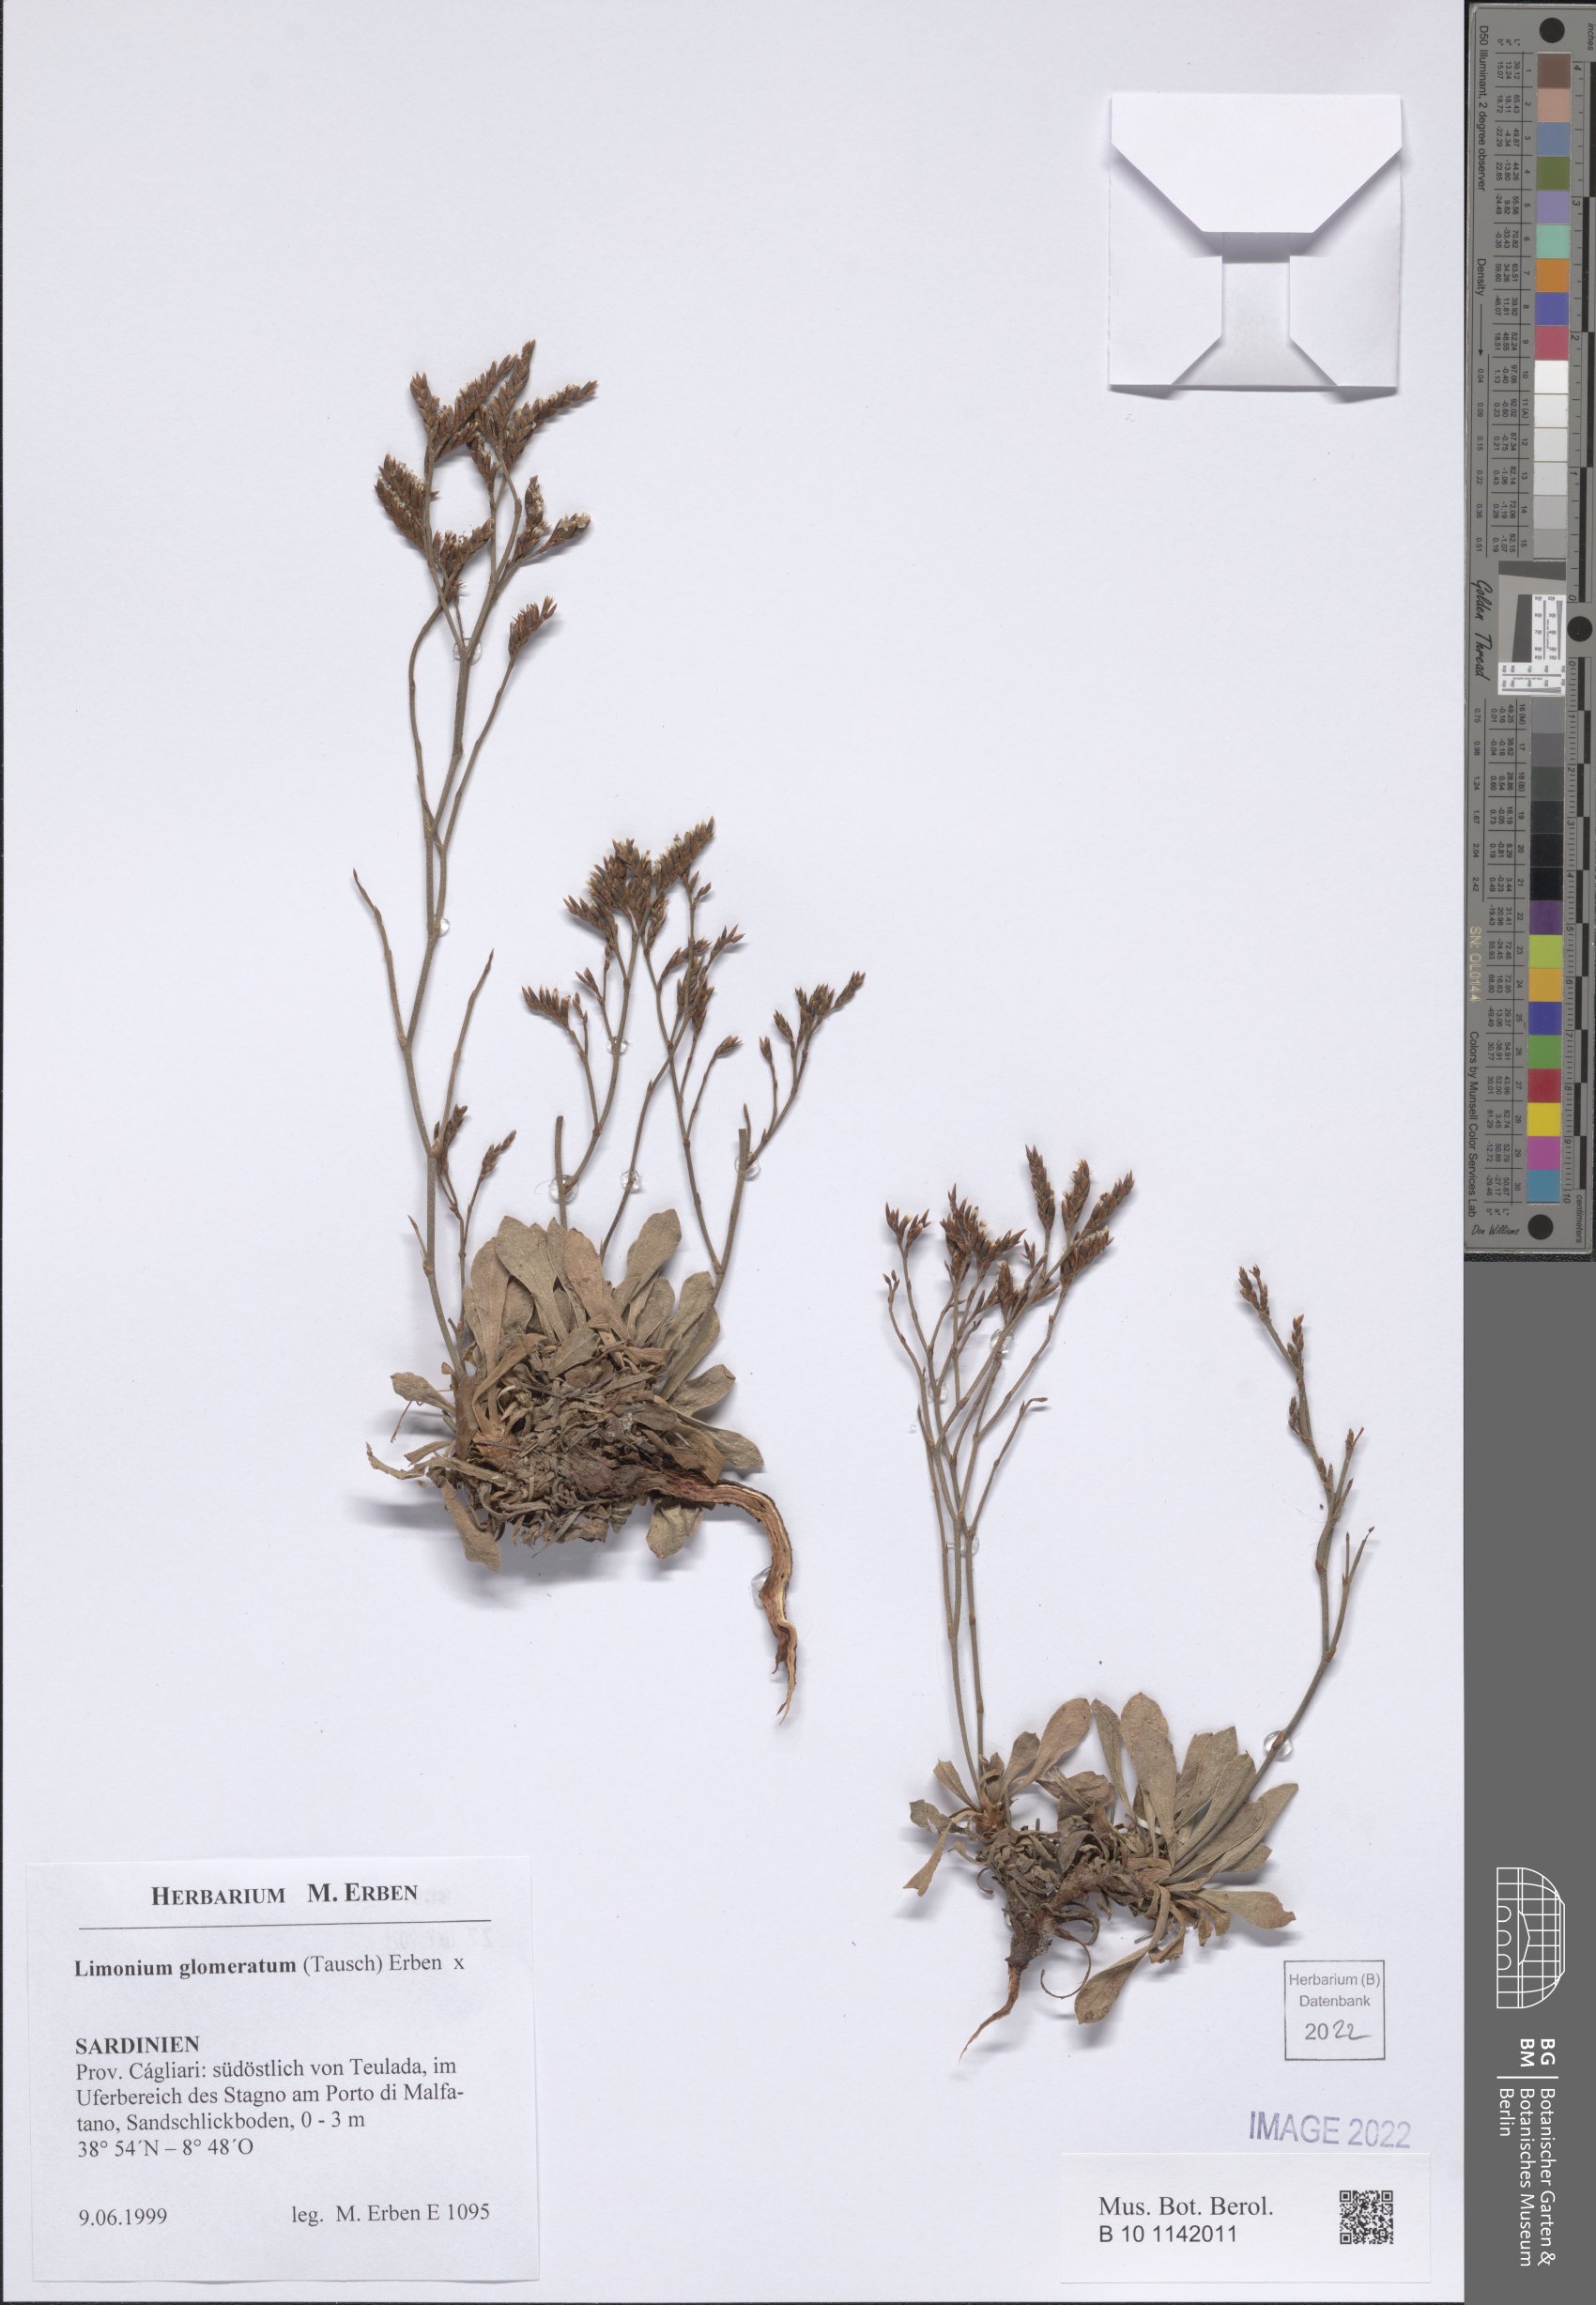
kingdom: Plantae
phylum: Tracheophyta
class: Magnoliopsida
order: Caryophyllales
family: Plumbaginaceae
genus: Limonium
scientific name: Limonium glomeratum
